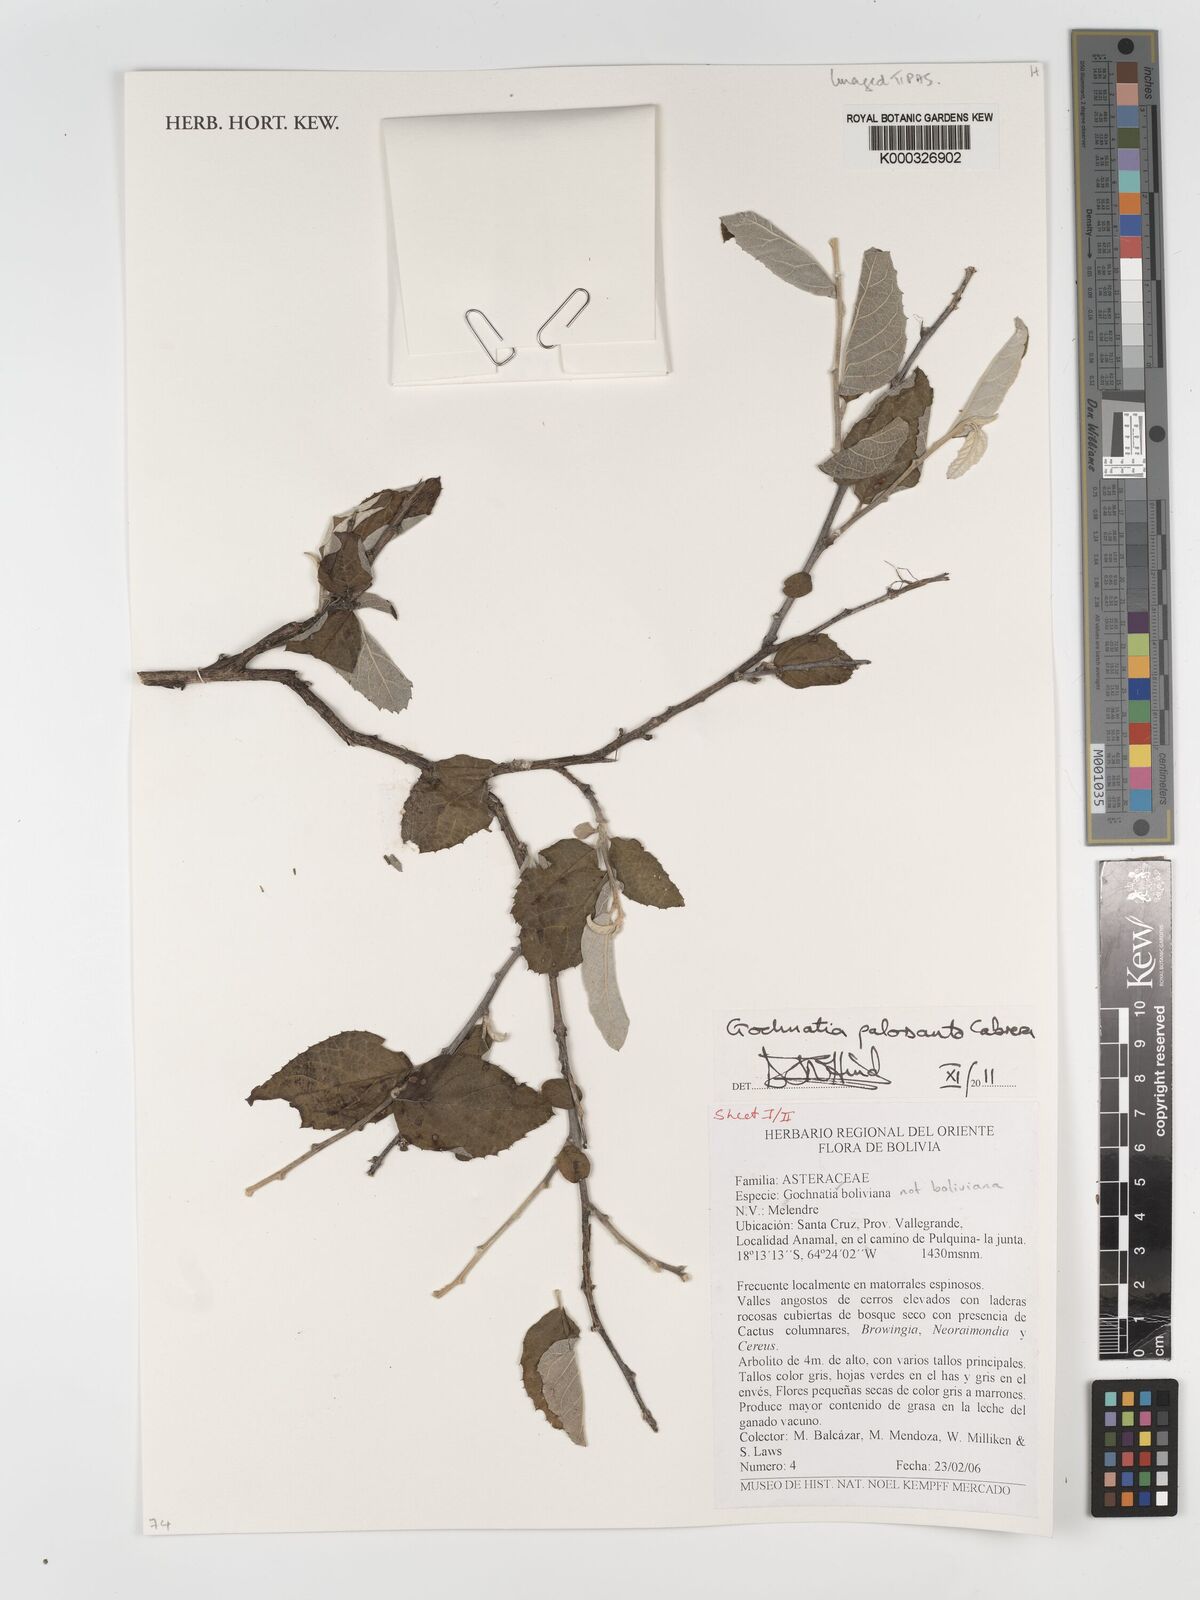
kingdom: Plantae
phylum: Tracheophyta
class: Magnoliopsida
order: Asterales
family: Asteraceae
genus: Gochnatia
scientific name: Gochnatia palosanto
